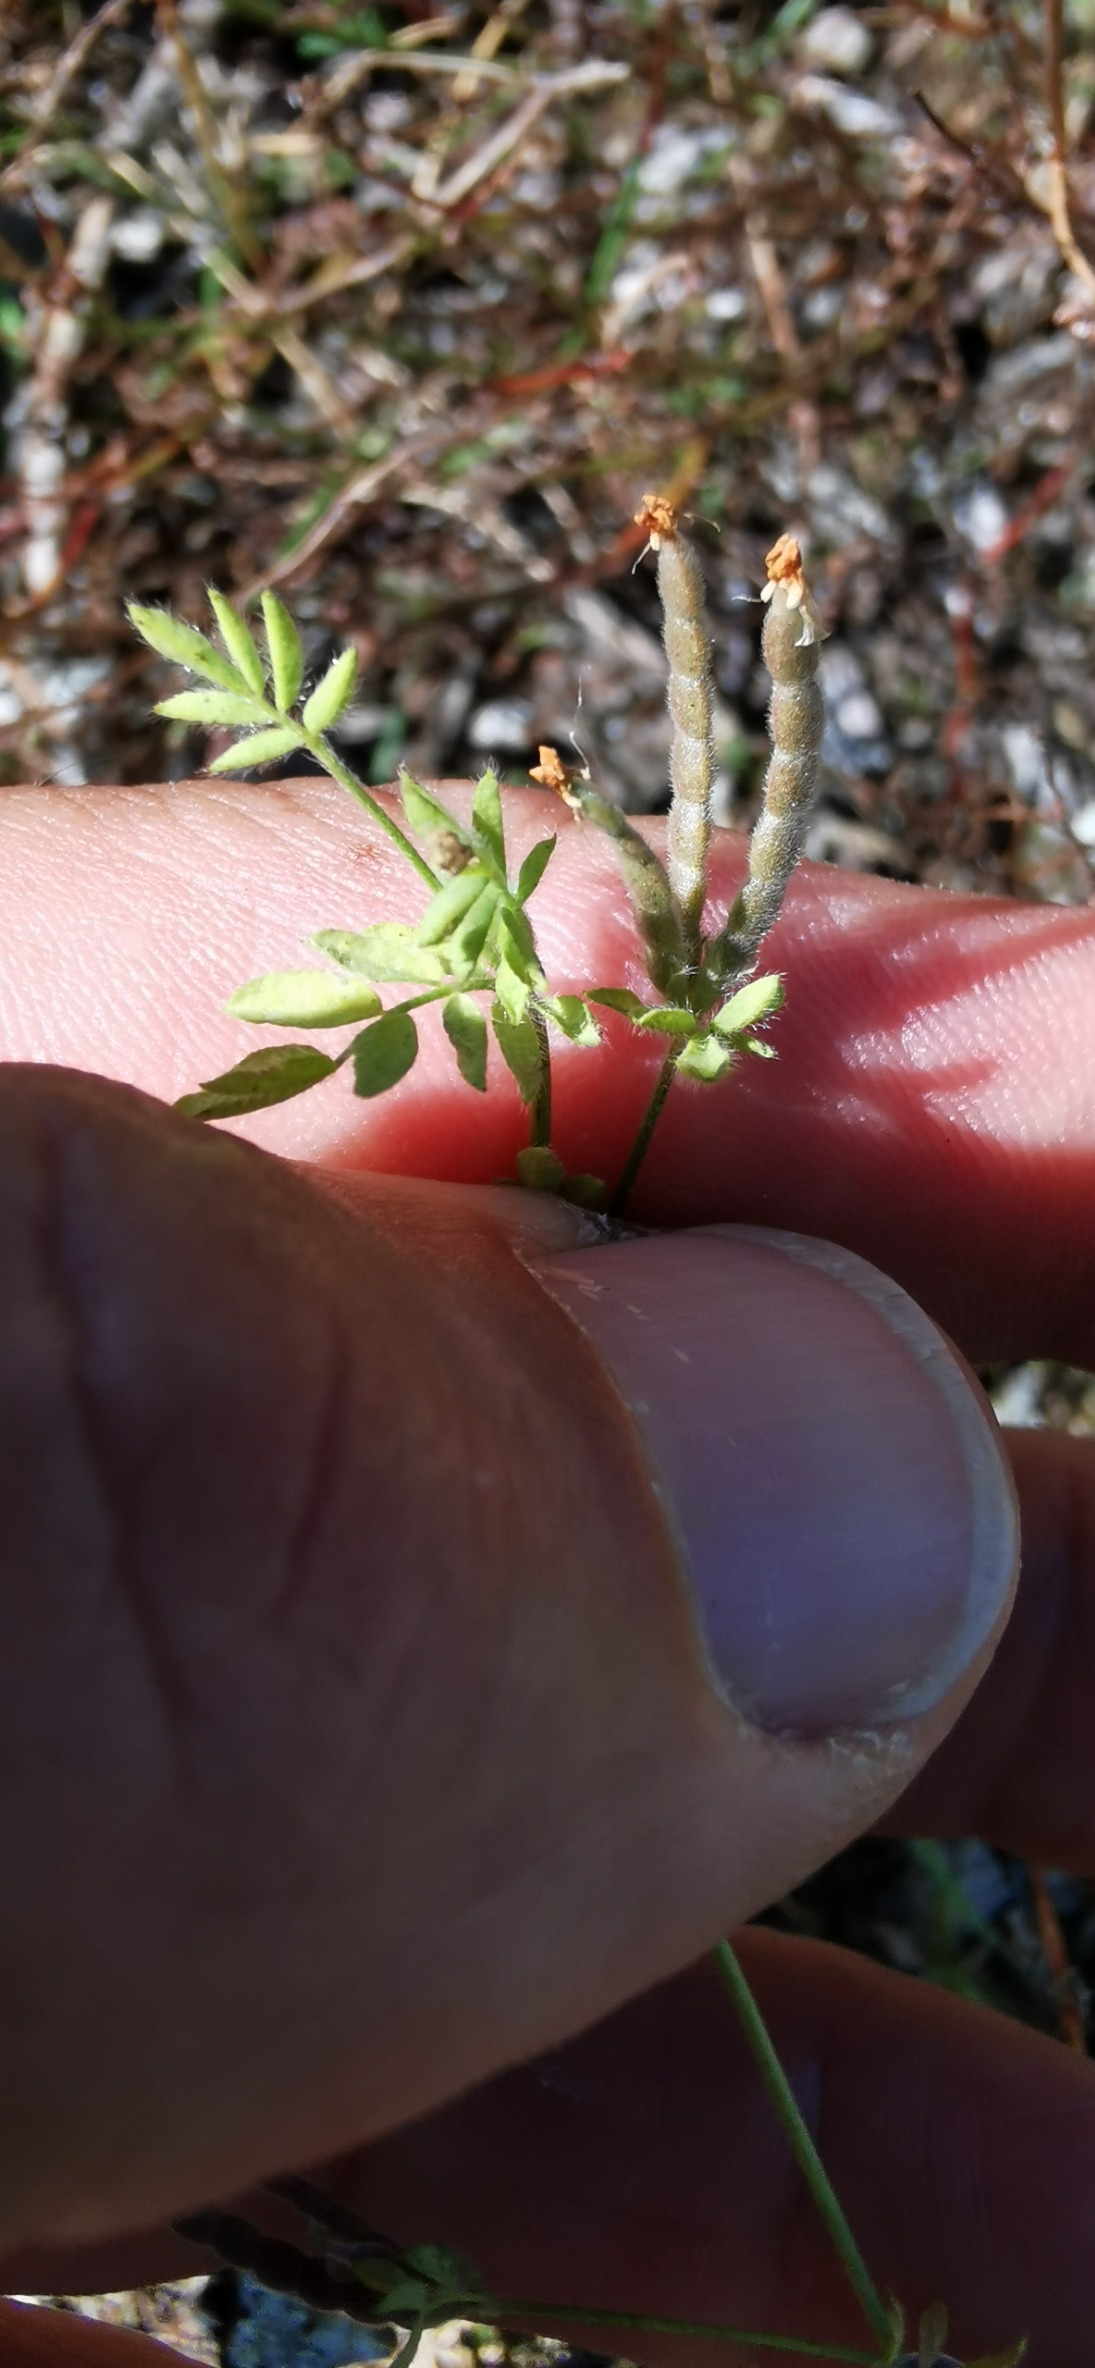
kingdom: Plantae
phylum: Tracheophyta
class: Magnoliopsida
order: Fabales
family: Fabaceae
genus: Ornithopus
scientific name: Ornithopus perpusillus
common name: Liden fugleklo
